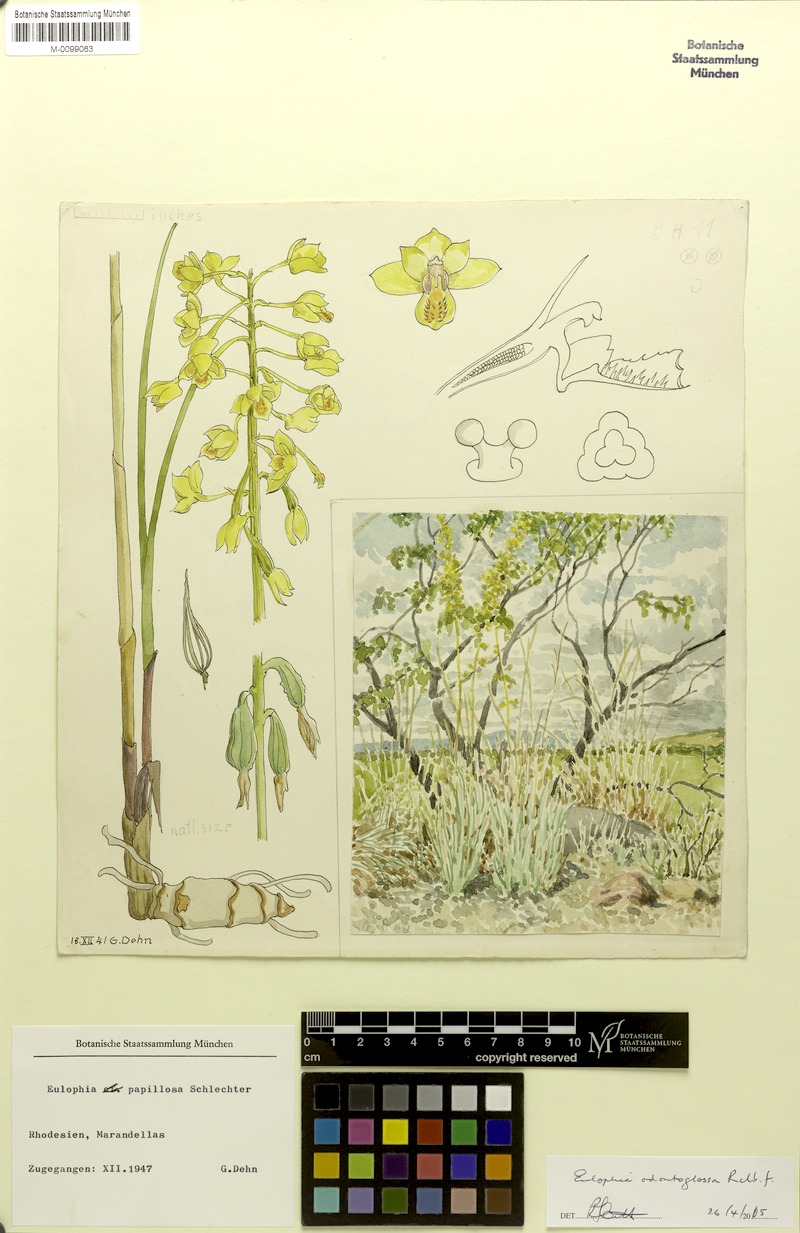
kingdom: Plantae
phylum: Tracheophyta
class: Liliopsida
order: Asparagales
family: Orchidaceae
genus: Eulophia
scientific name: Eulophia odontoglossa
